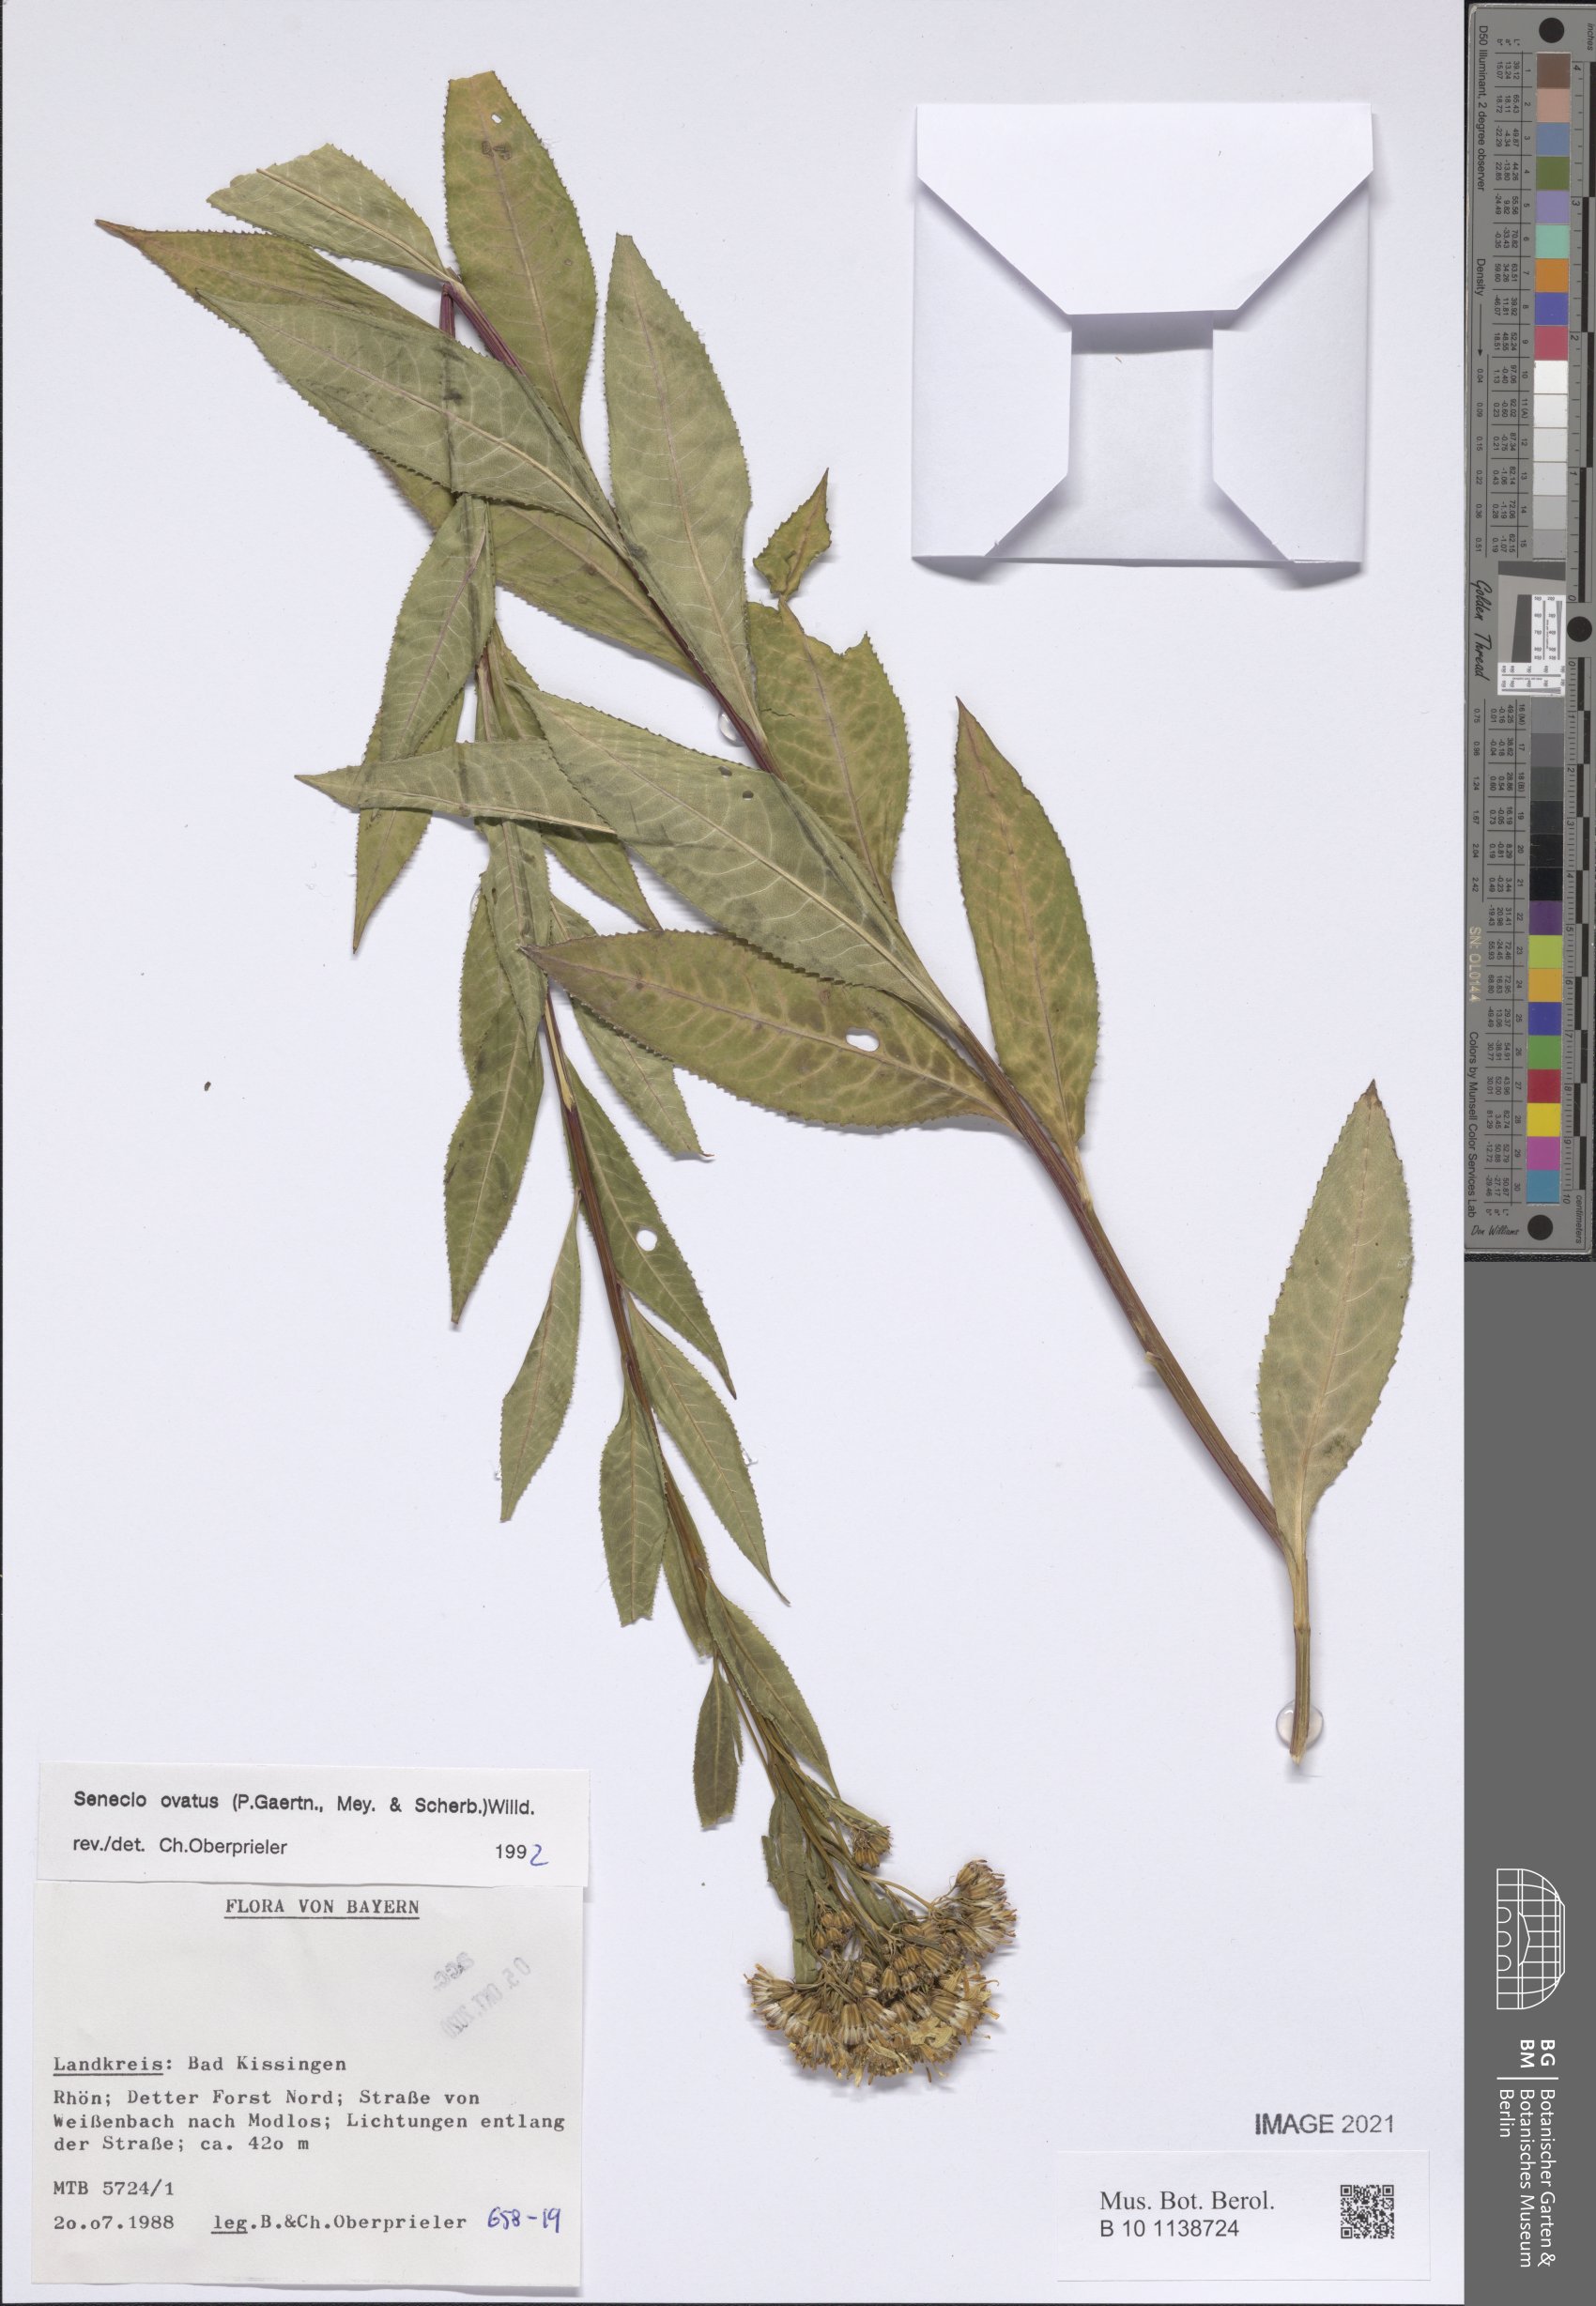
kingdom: Plantae
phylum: Tracheophyta
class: Magnoliopsida
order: Asterales
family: Asteraceae
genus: Senecio
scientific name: Senecio ovatus
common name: Wood ragwort
